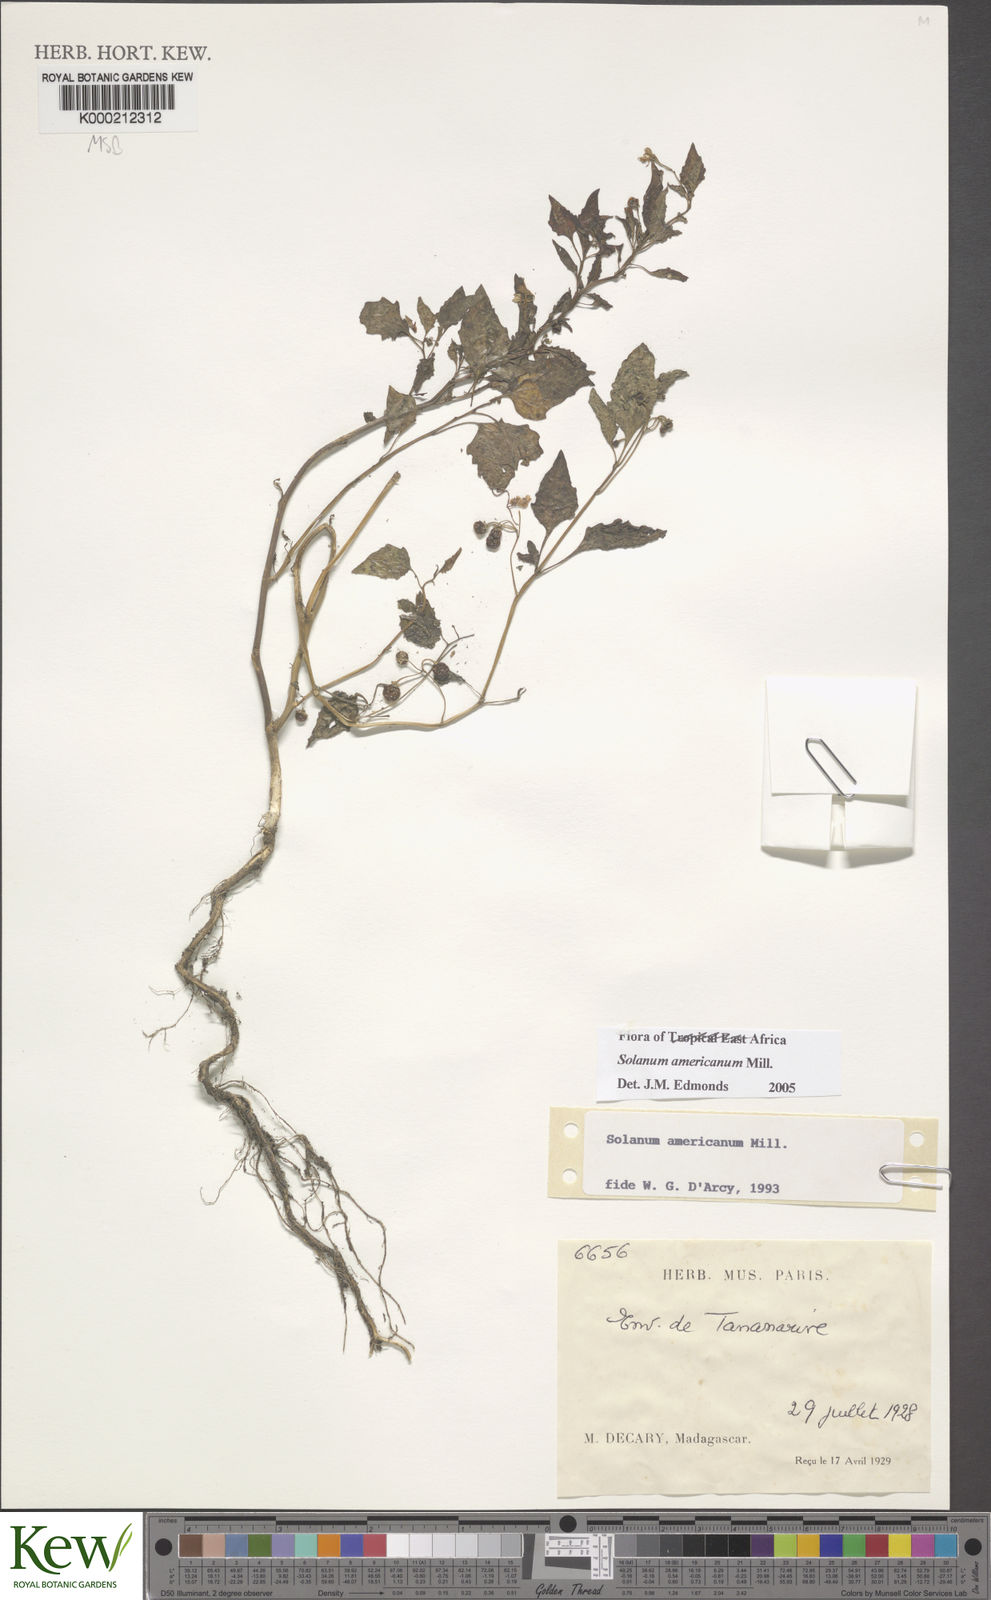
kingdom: Plantae
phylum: Tracheophyta
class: Magnoliopsida
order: Solanales
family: Solanaceae
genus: Solanum
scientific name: Solanum americanum
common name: American black nightshade
